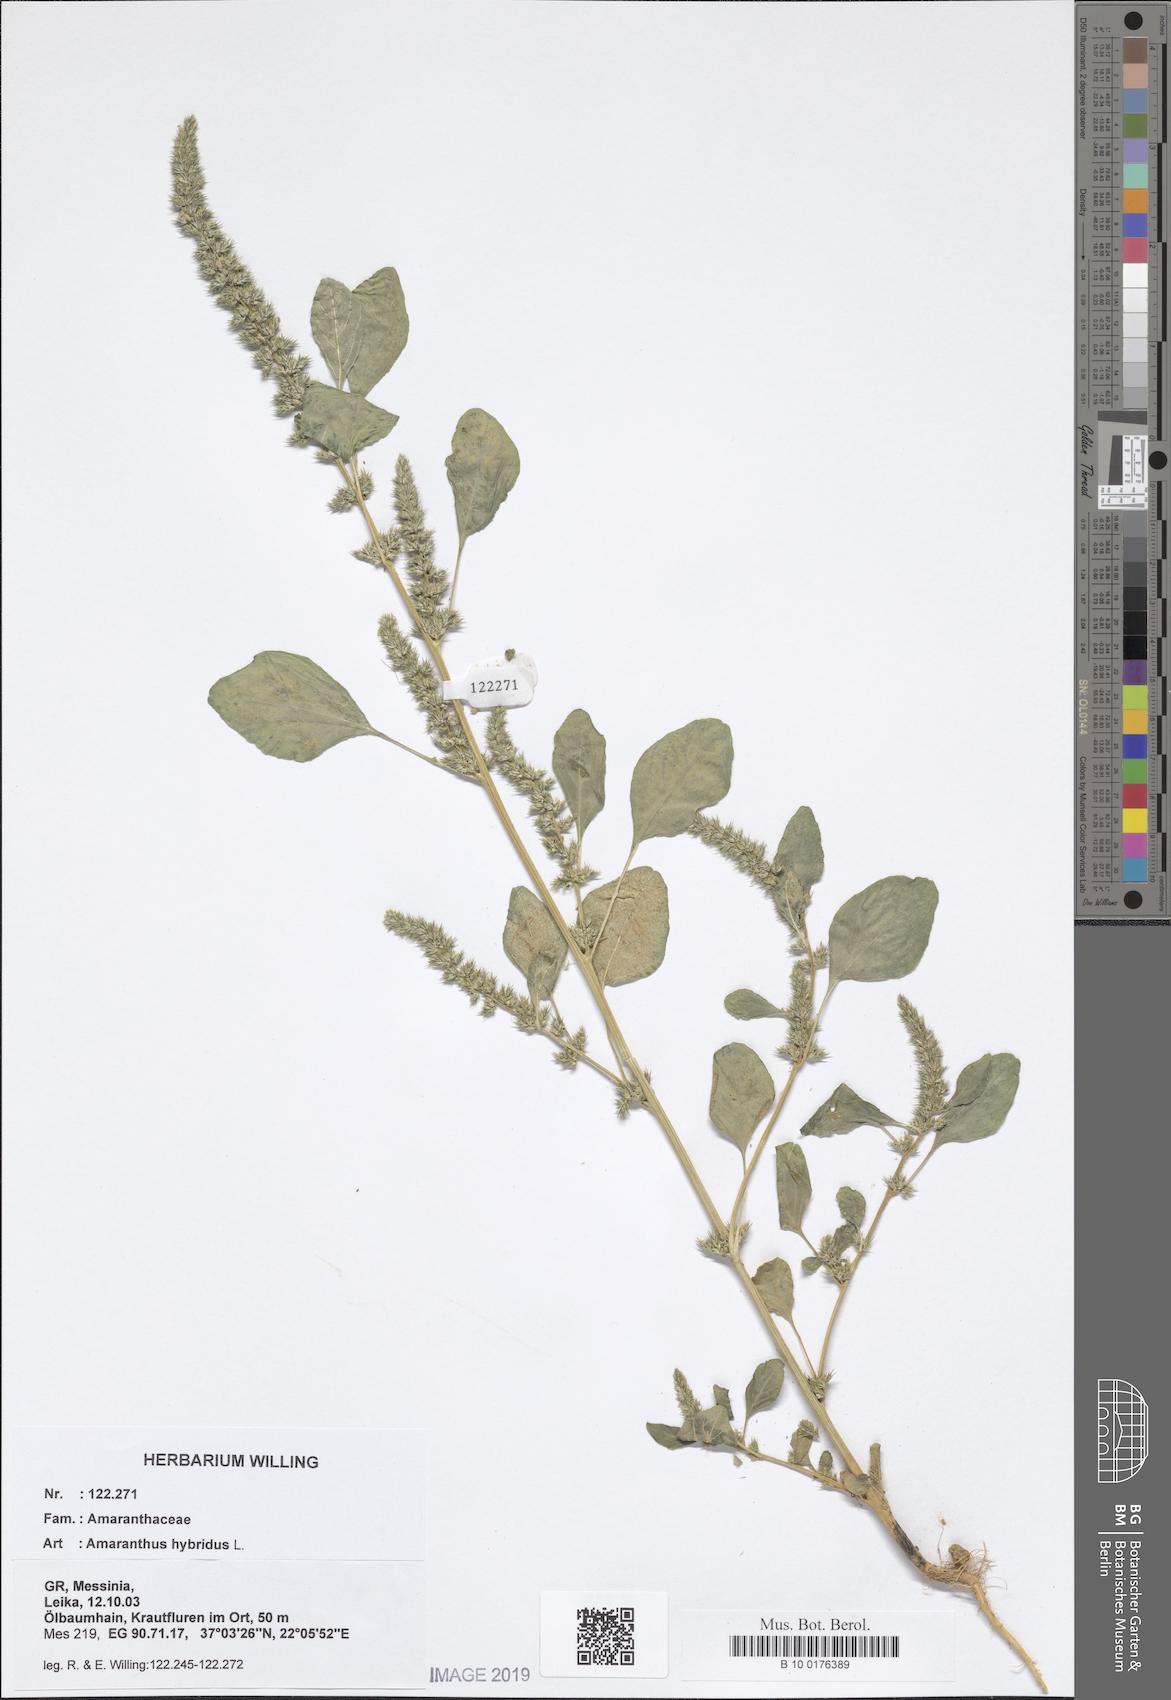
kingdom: Plantae
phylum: Tracheophyta
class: Magnoliopsida
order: Caryophyllales
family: Amaranthaceae
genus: Amaranthus
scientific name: Amaranthus hybridus
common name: Green amaranth
